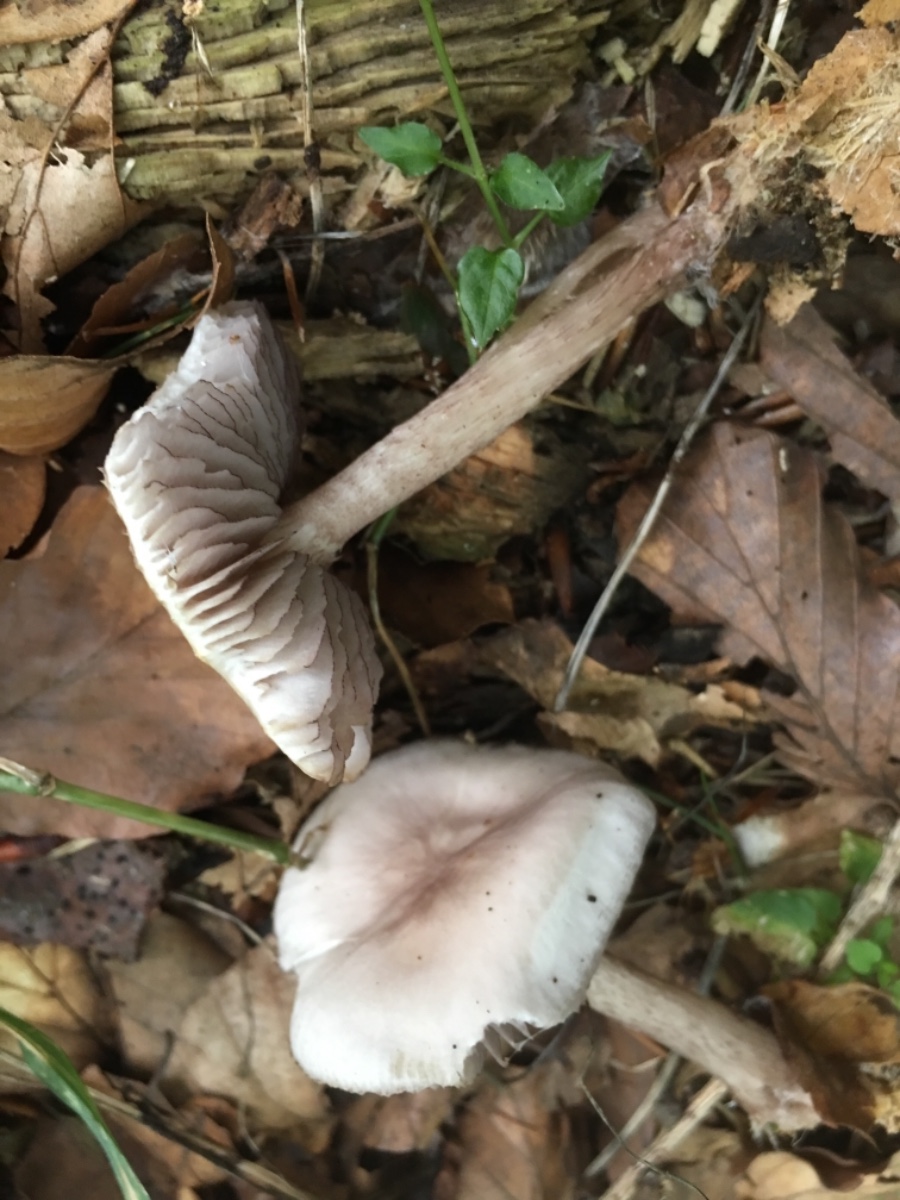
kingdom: Fungi
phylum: Basidiomycota
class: Agaricomycetes
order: Agaricales
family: Mycenaceae
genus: Mycena
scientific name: Mycena pelianthina
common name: mørkbladet huesvamp
